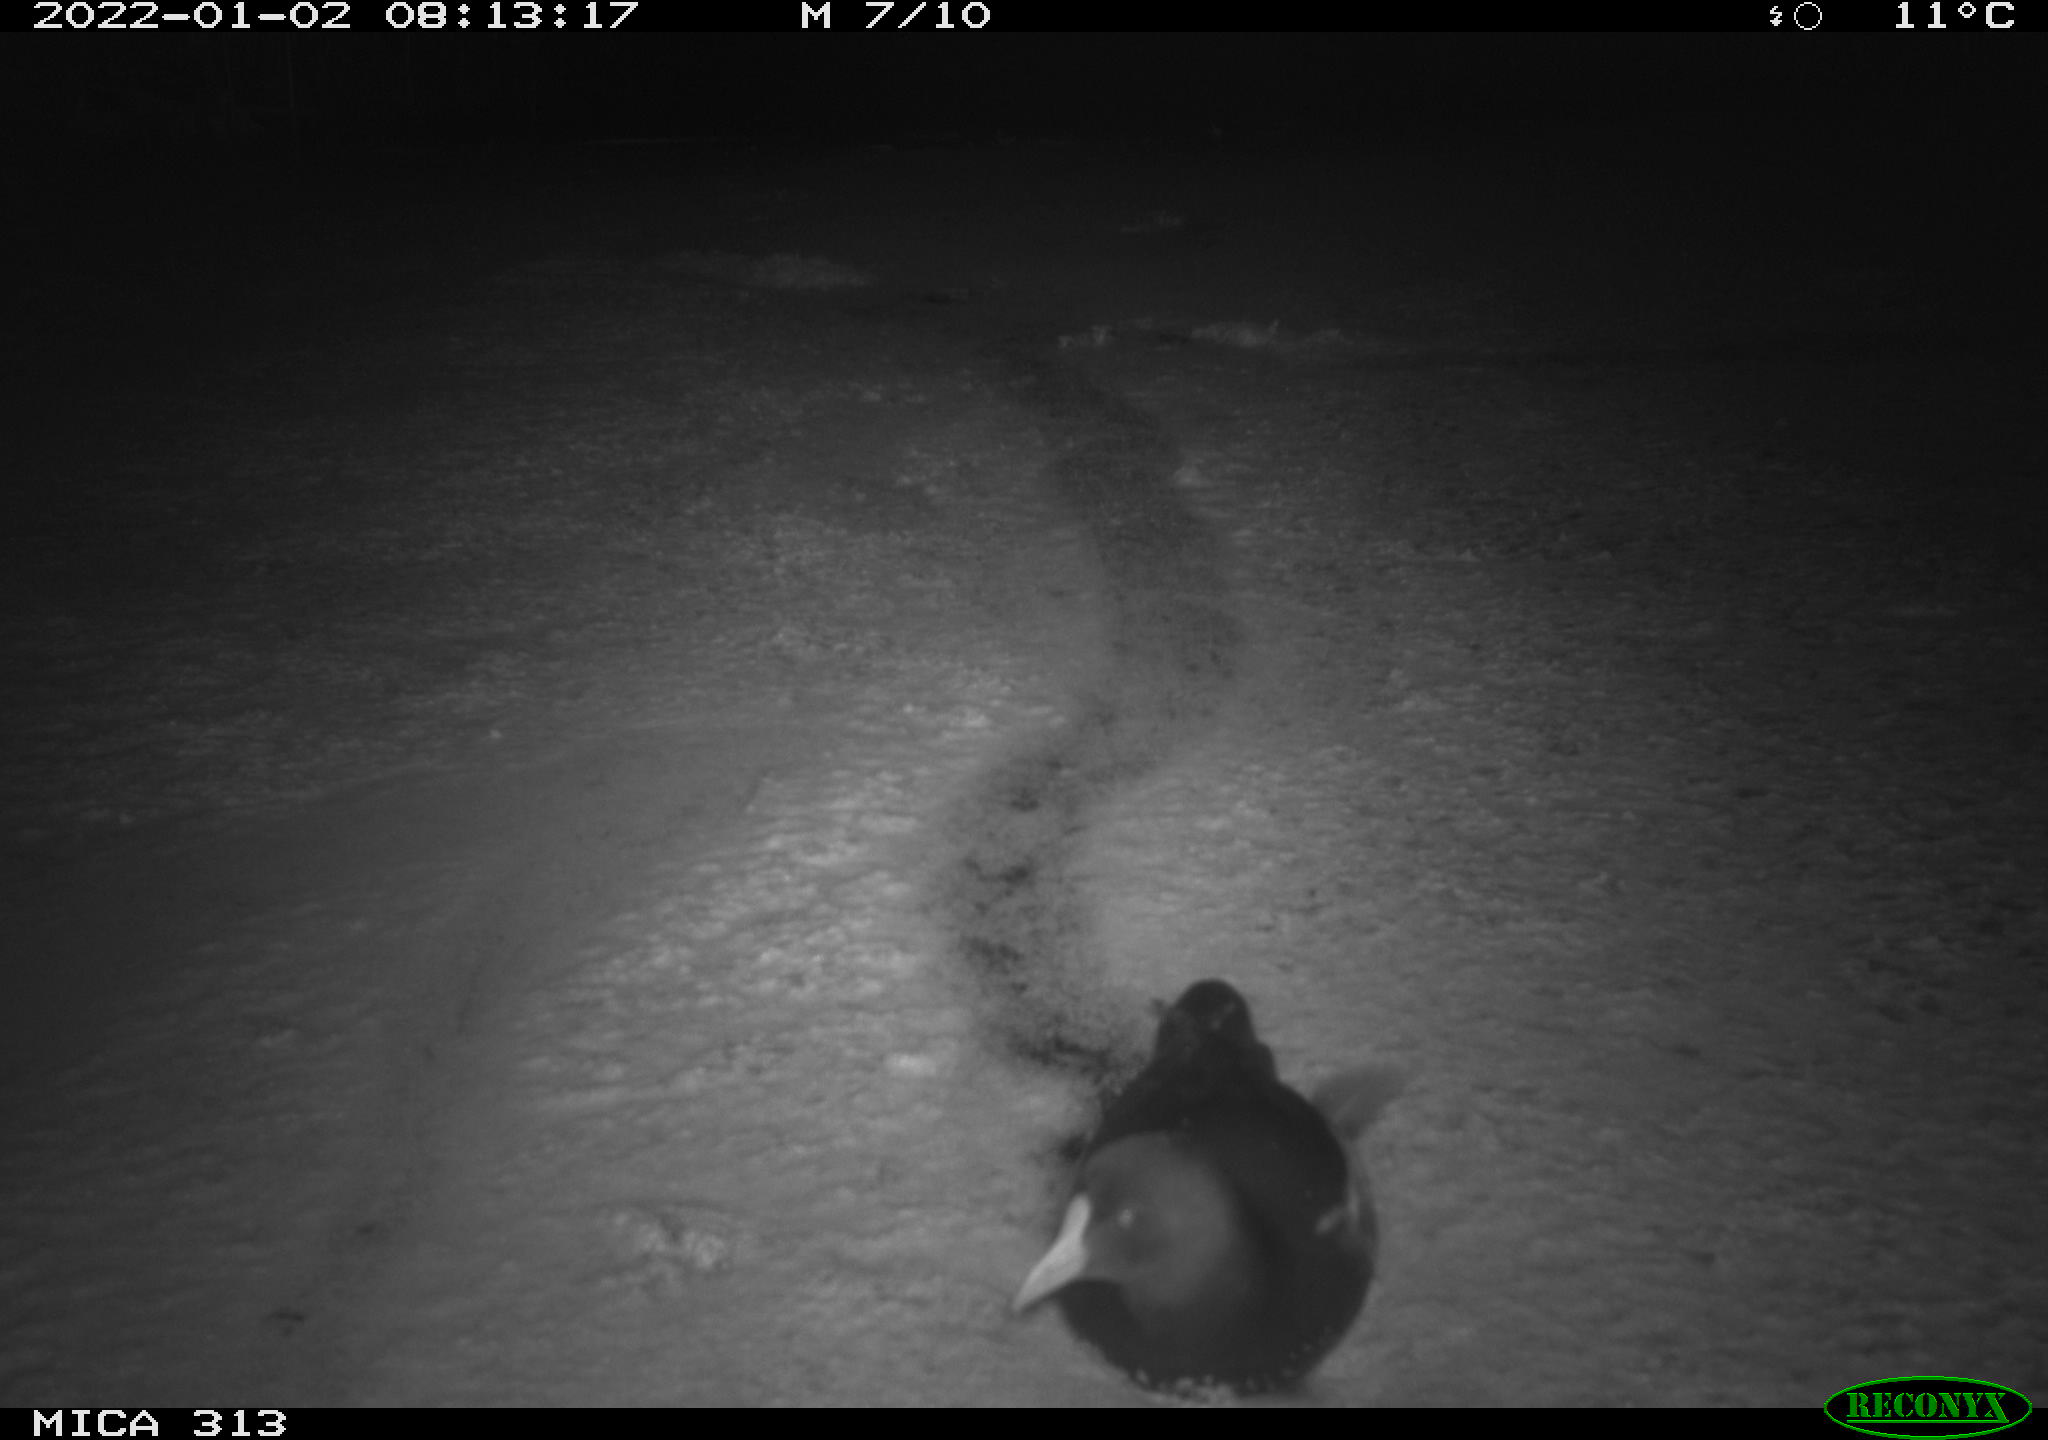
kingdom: Animalia
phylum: Chordata
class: Aves
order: Gruiformes
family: Rallidae
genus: Gallinula
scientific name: Gallinula chloropus
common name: Common moorhen
